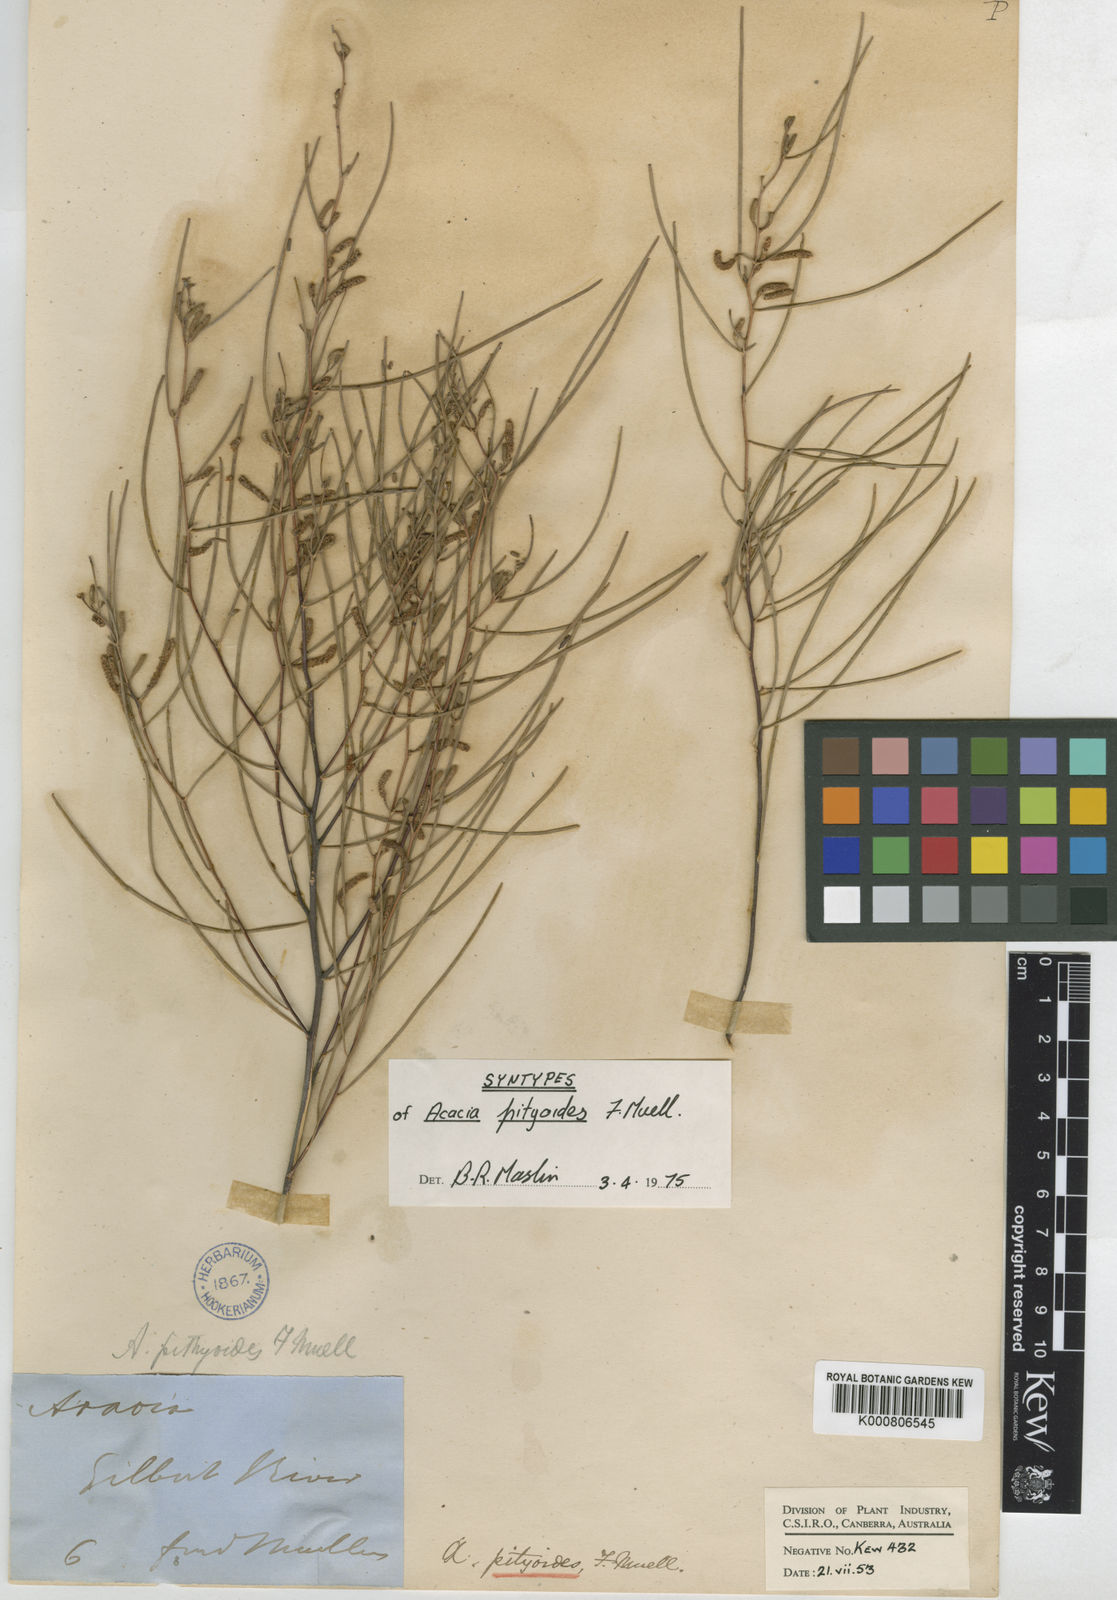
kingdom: Plantae
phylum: Tracheophyta
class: Magnoliopsida
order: Fabales
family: Fabaceae
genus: Acacia
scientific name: Acacia
